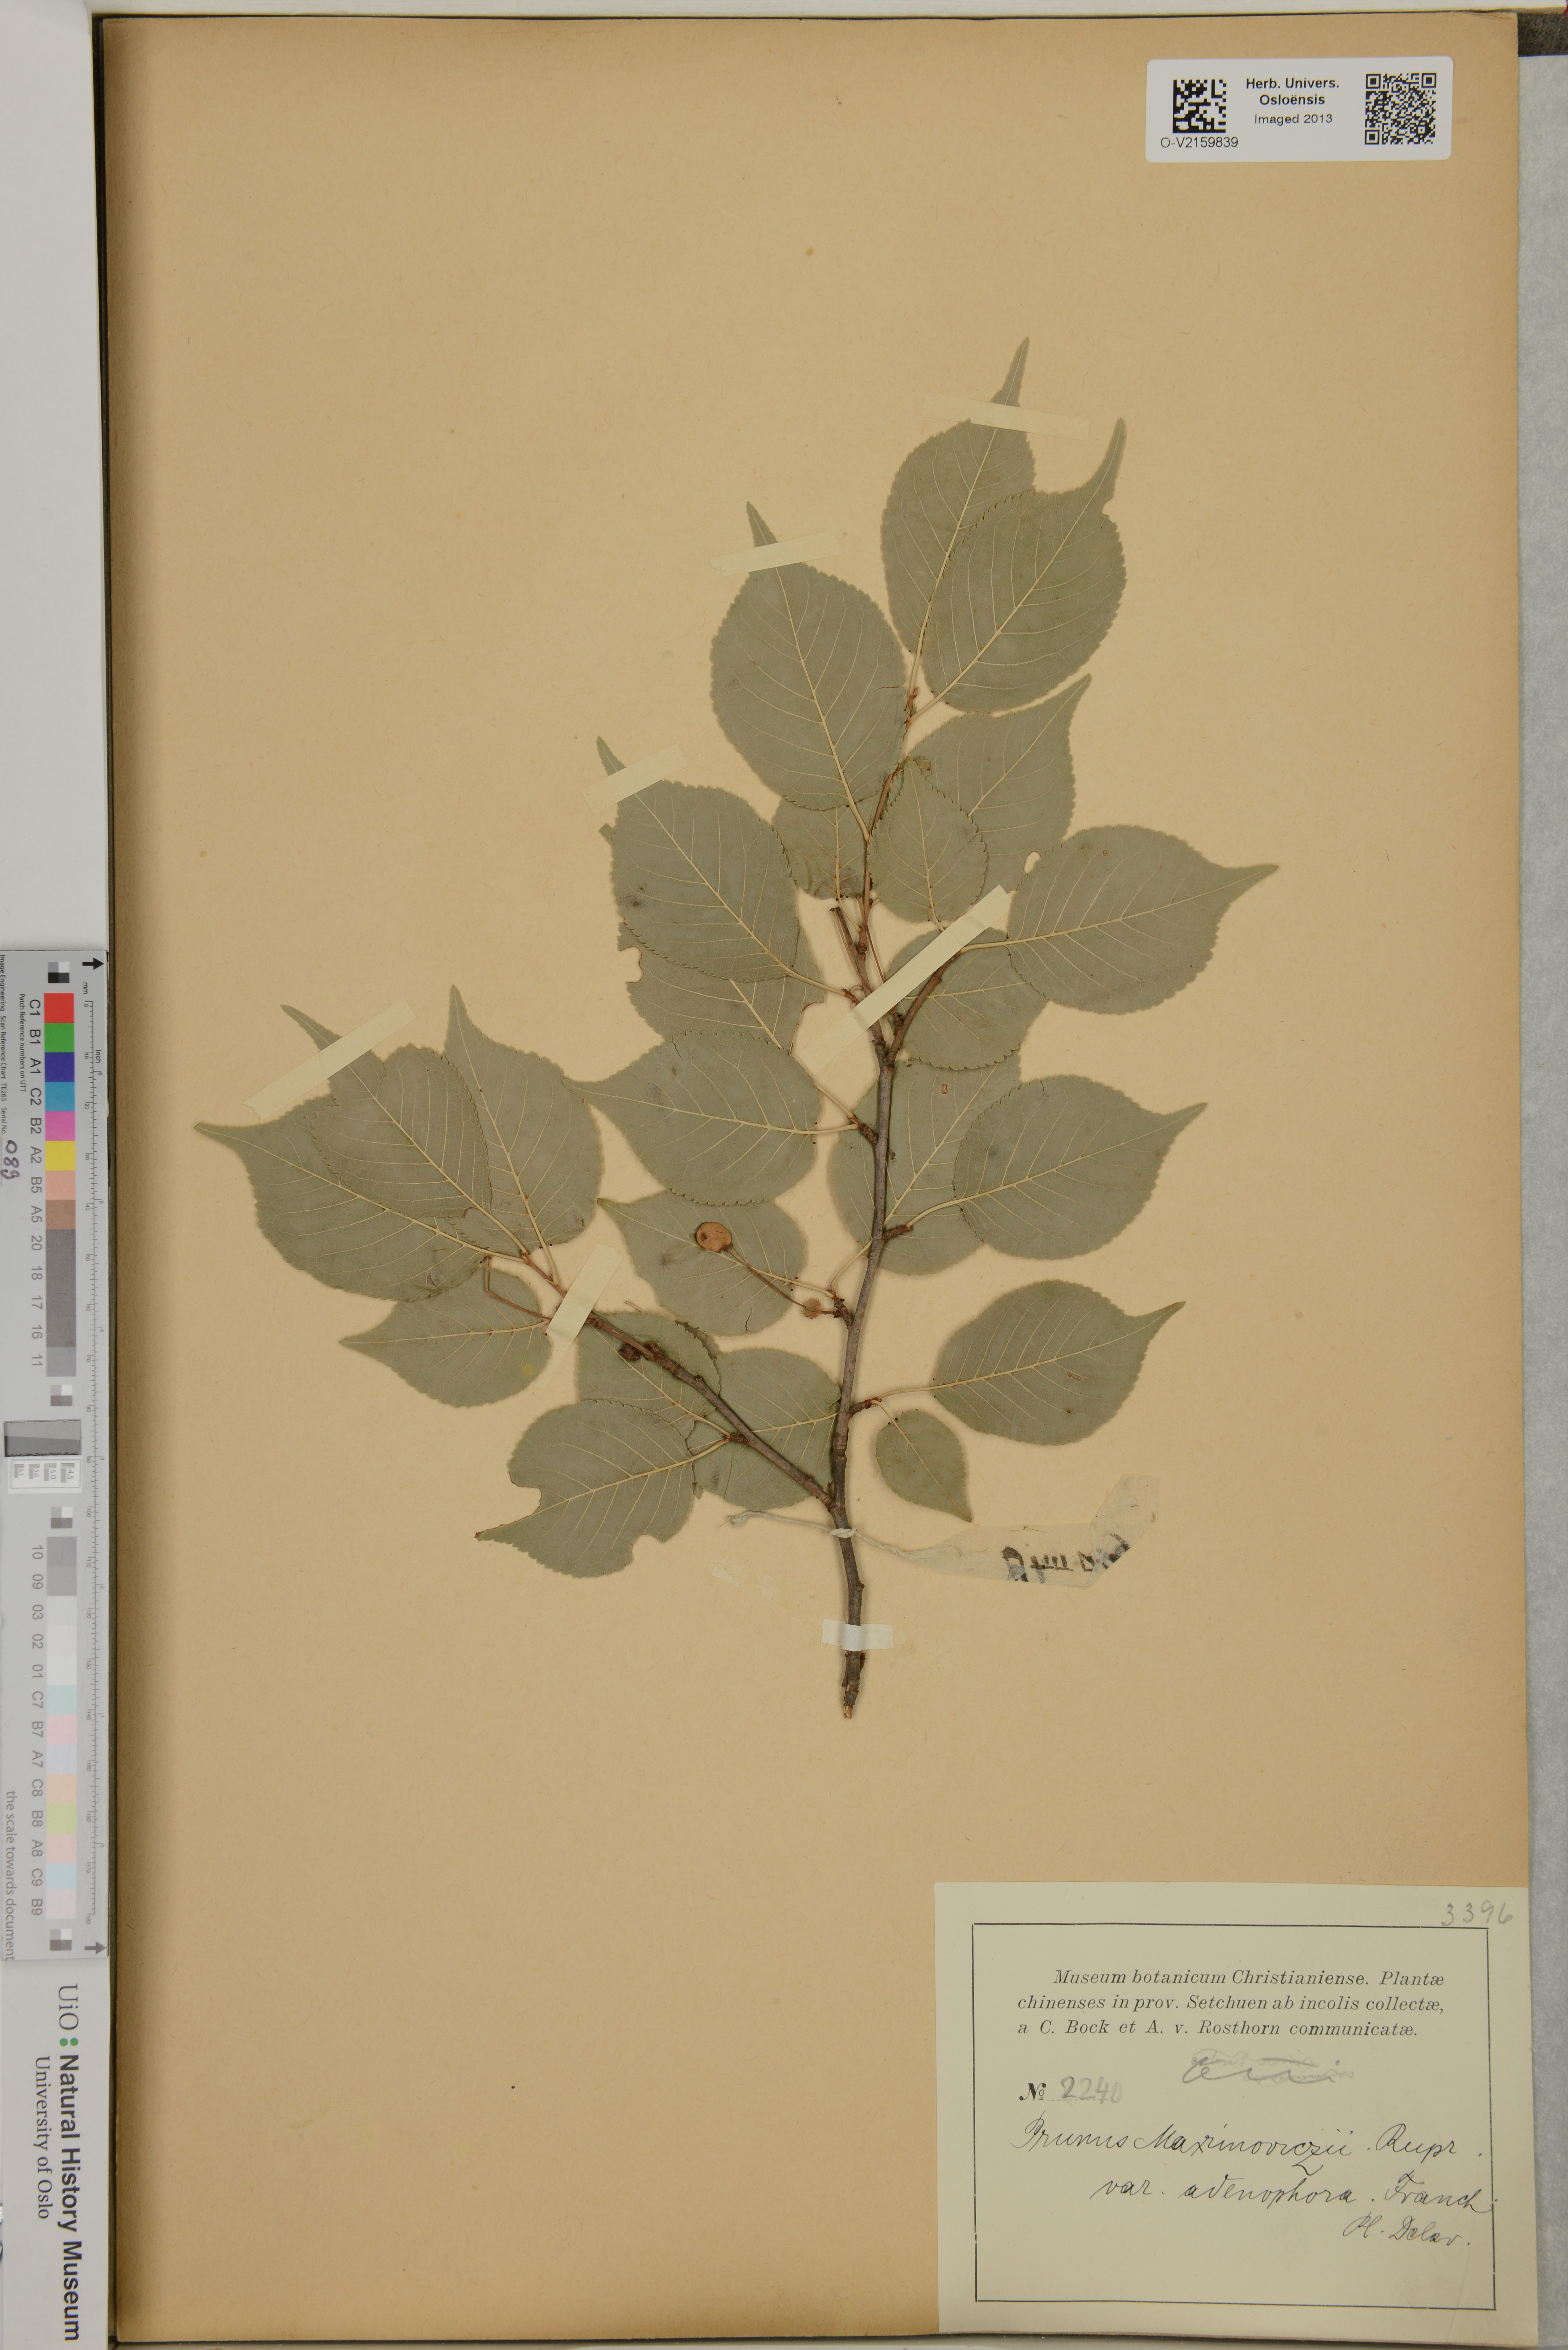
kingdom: Plantae
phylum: Tracheophyta
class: Magnoliopsida
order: Rosales
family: Rosaceae
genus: Prunus
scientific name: Prunus maximowiczii
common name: Korean cherry
